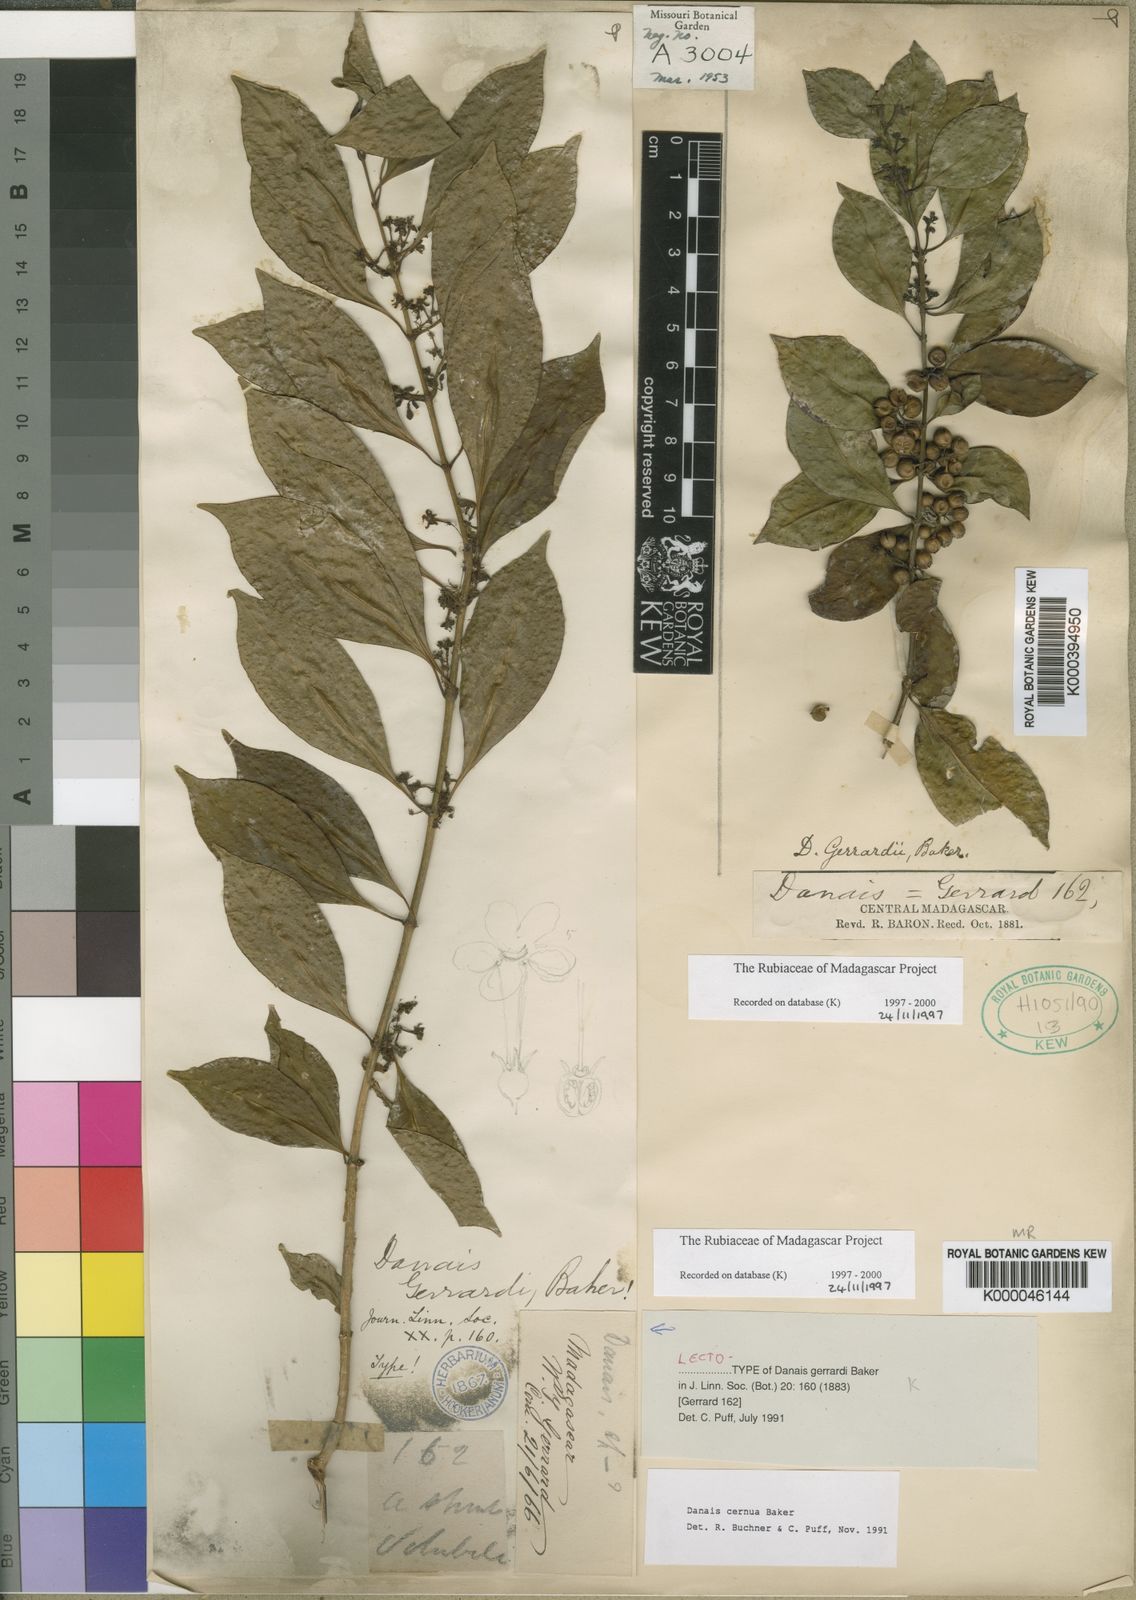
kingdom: Plantae
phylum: Tracheophyta
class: Magnoliopsida
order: Gentianales
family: Rubiaceae
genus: Danais
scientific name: Danais cernua
